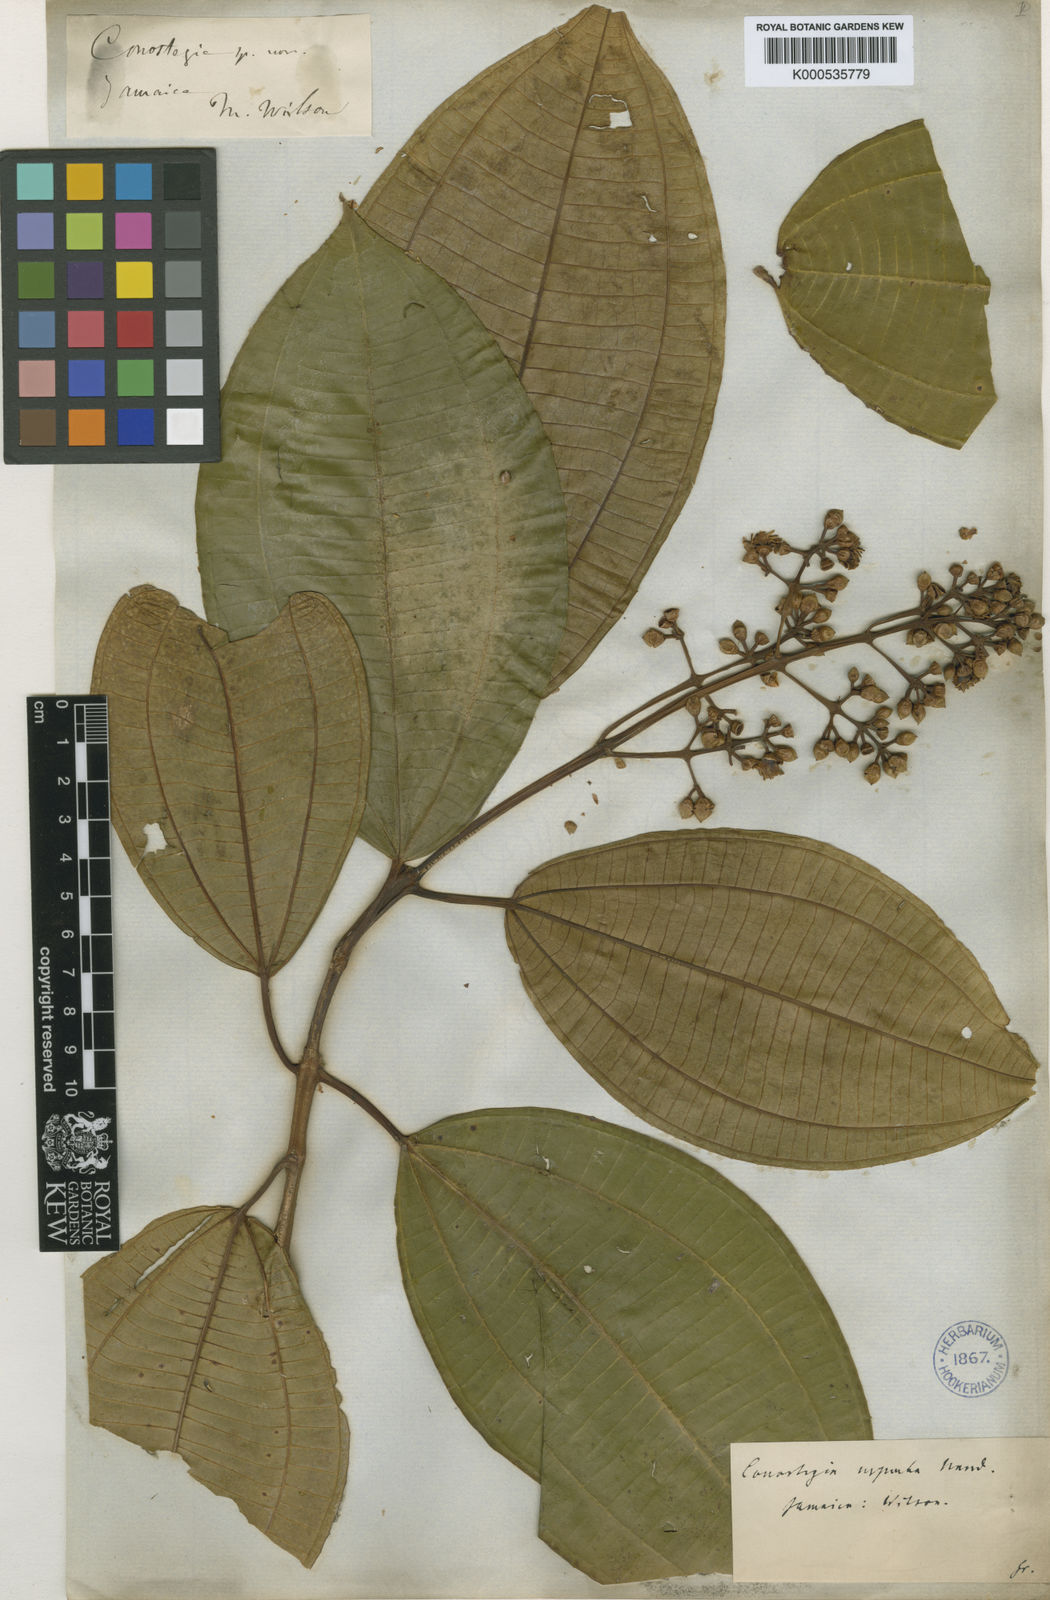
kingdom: Plantae
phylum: Tracheophyta
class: Magnoliopsida
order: Myrtales
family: Melastomataceae
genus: Miconia
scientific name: Miconia baillonii
